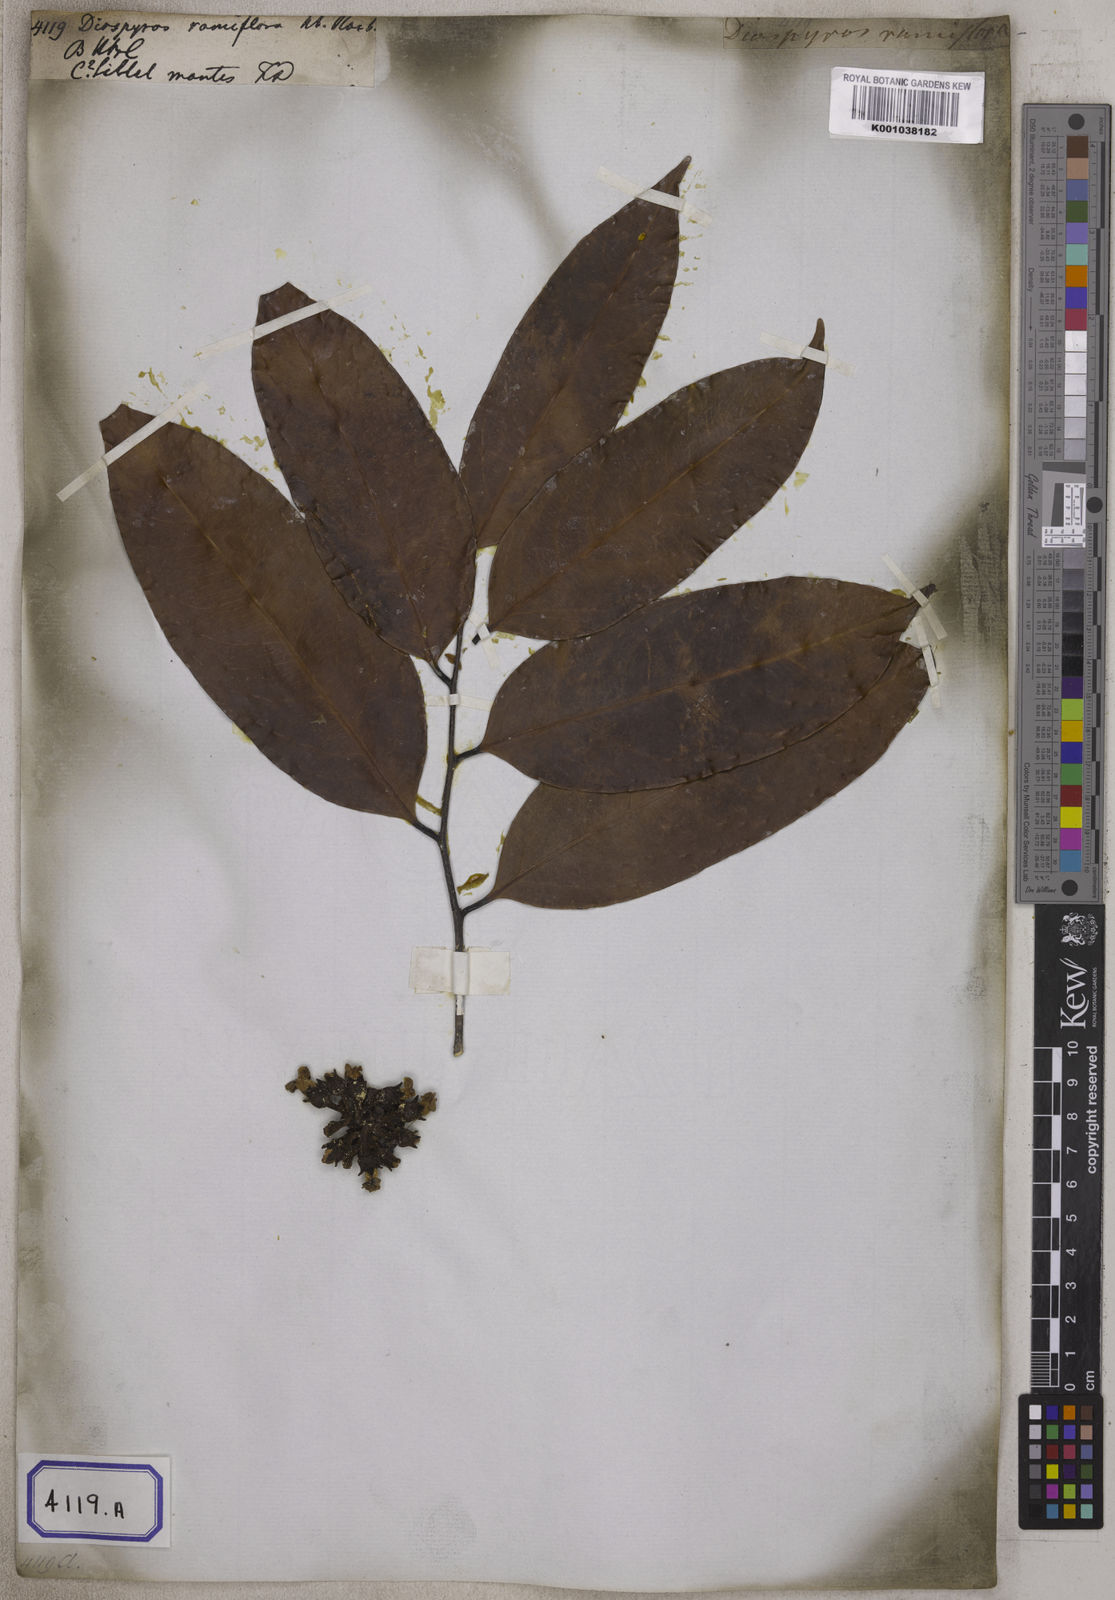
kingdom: Plantae
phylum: Tracheophyta
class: Magnoliopsida
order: Ericales
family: Ebenaceae
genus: Diospyros
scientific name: Diospyros ramiflora
